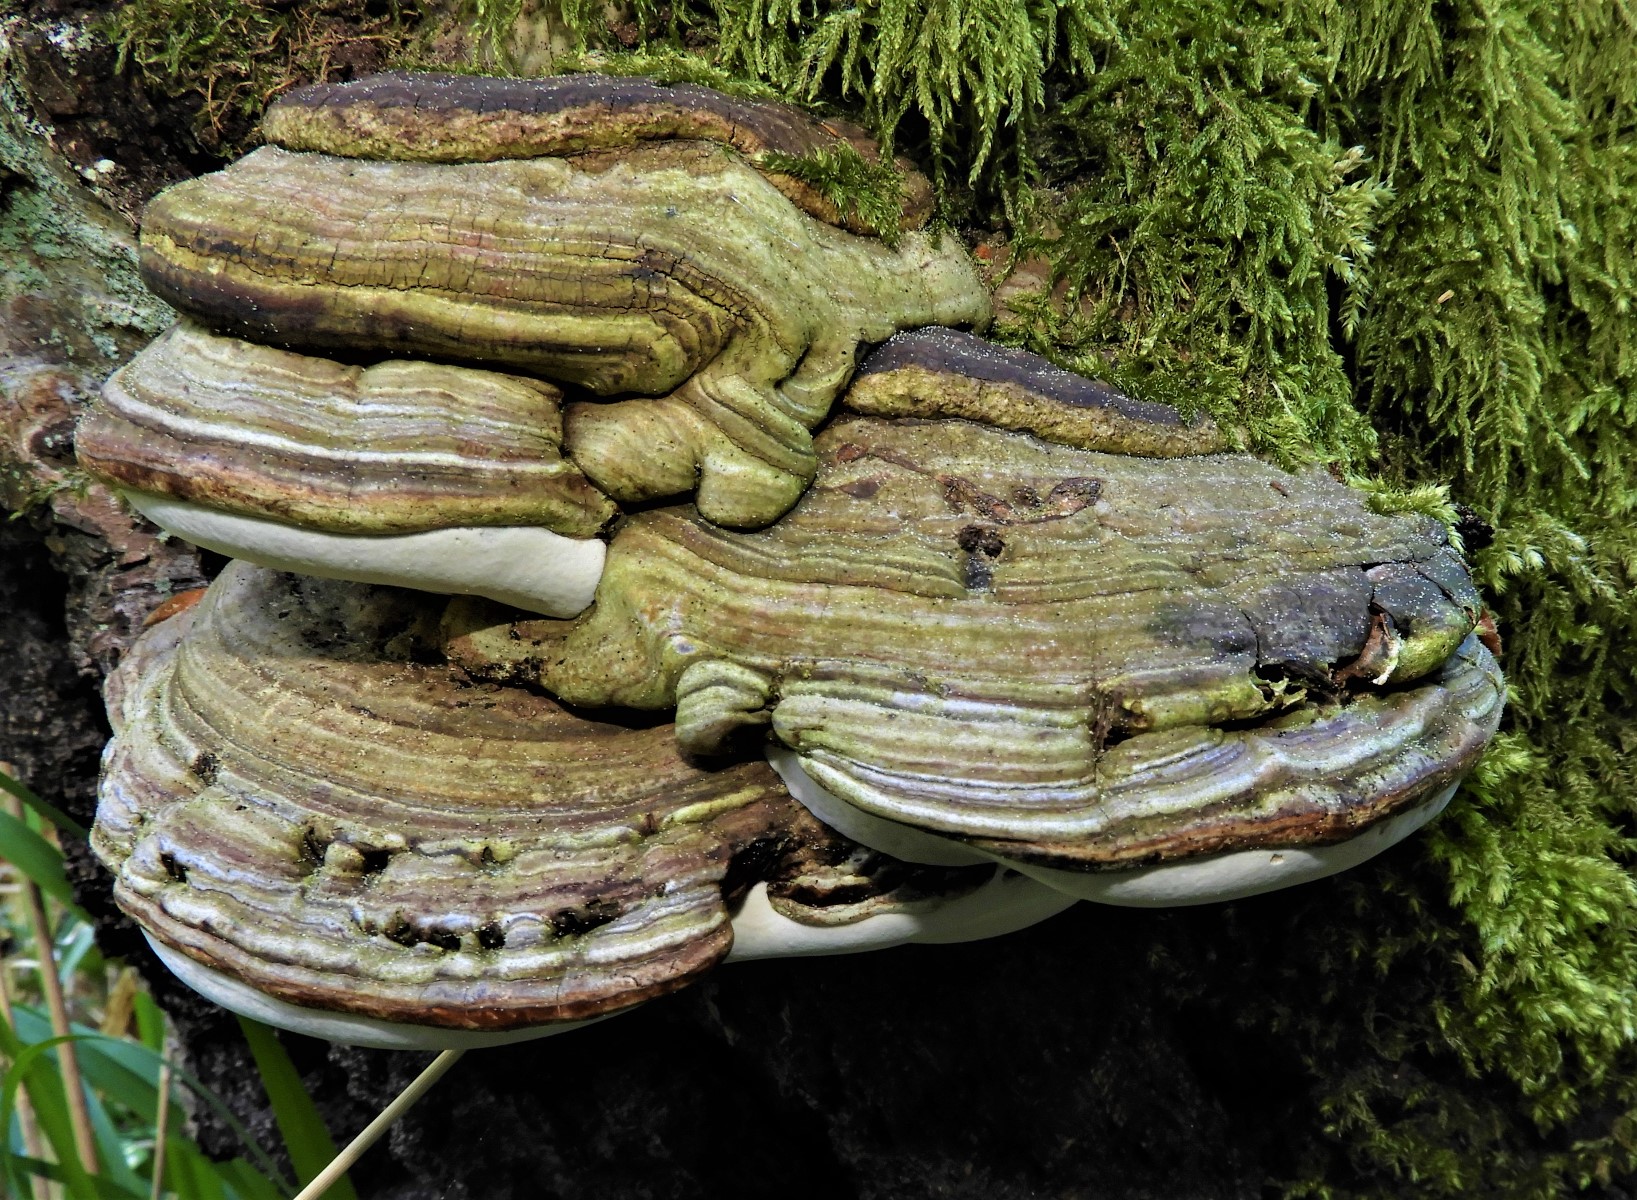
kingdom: Fungi
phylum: Basidiomycota
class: Agaricomycetes
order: Polyporales
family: Polyporaceae
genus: Fomes
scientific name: Fomes fomentarius
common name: tøndersvamp
